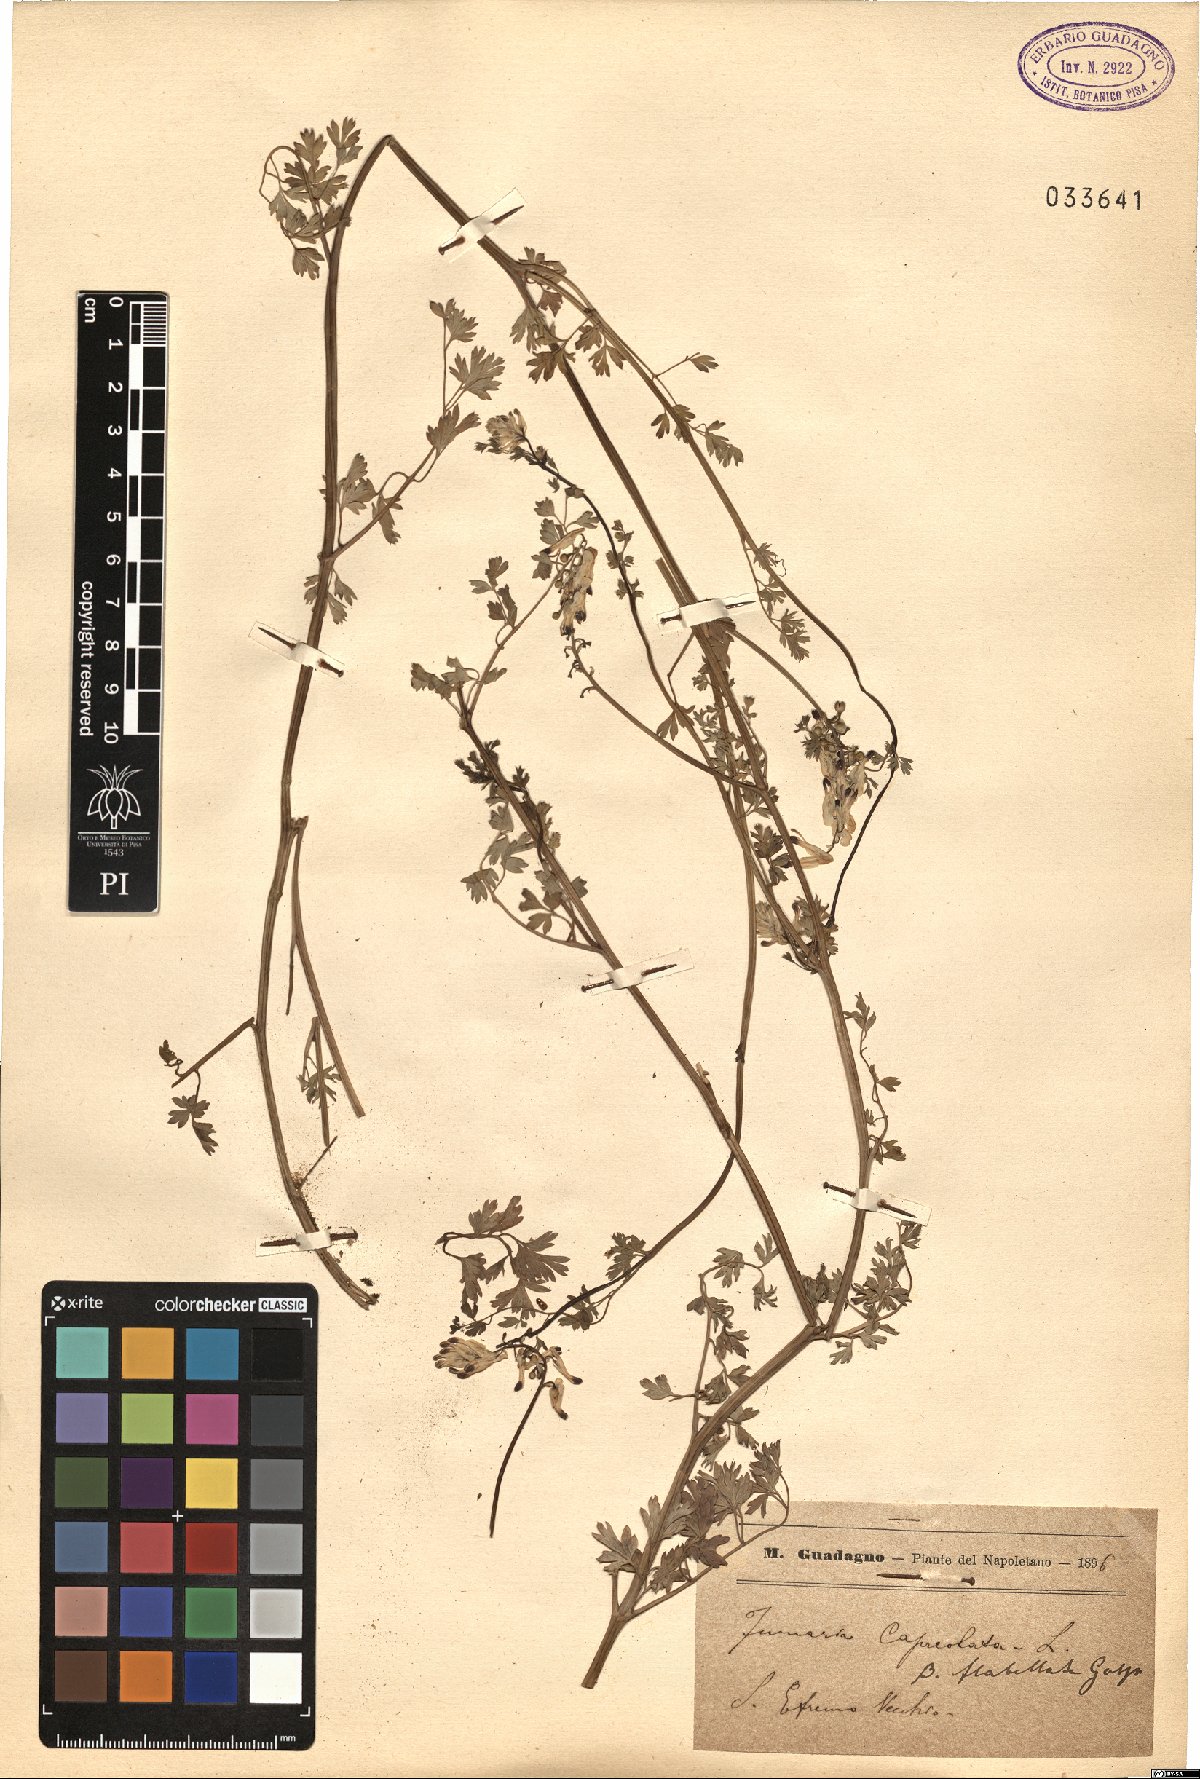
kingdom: Plantae
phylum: Tracheophyta
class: Magnoliopsida
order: Ranunculales
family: Papaveraceae
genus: Fumaria
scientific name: Fumaria flabellata
